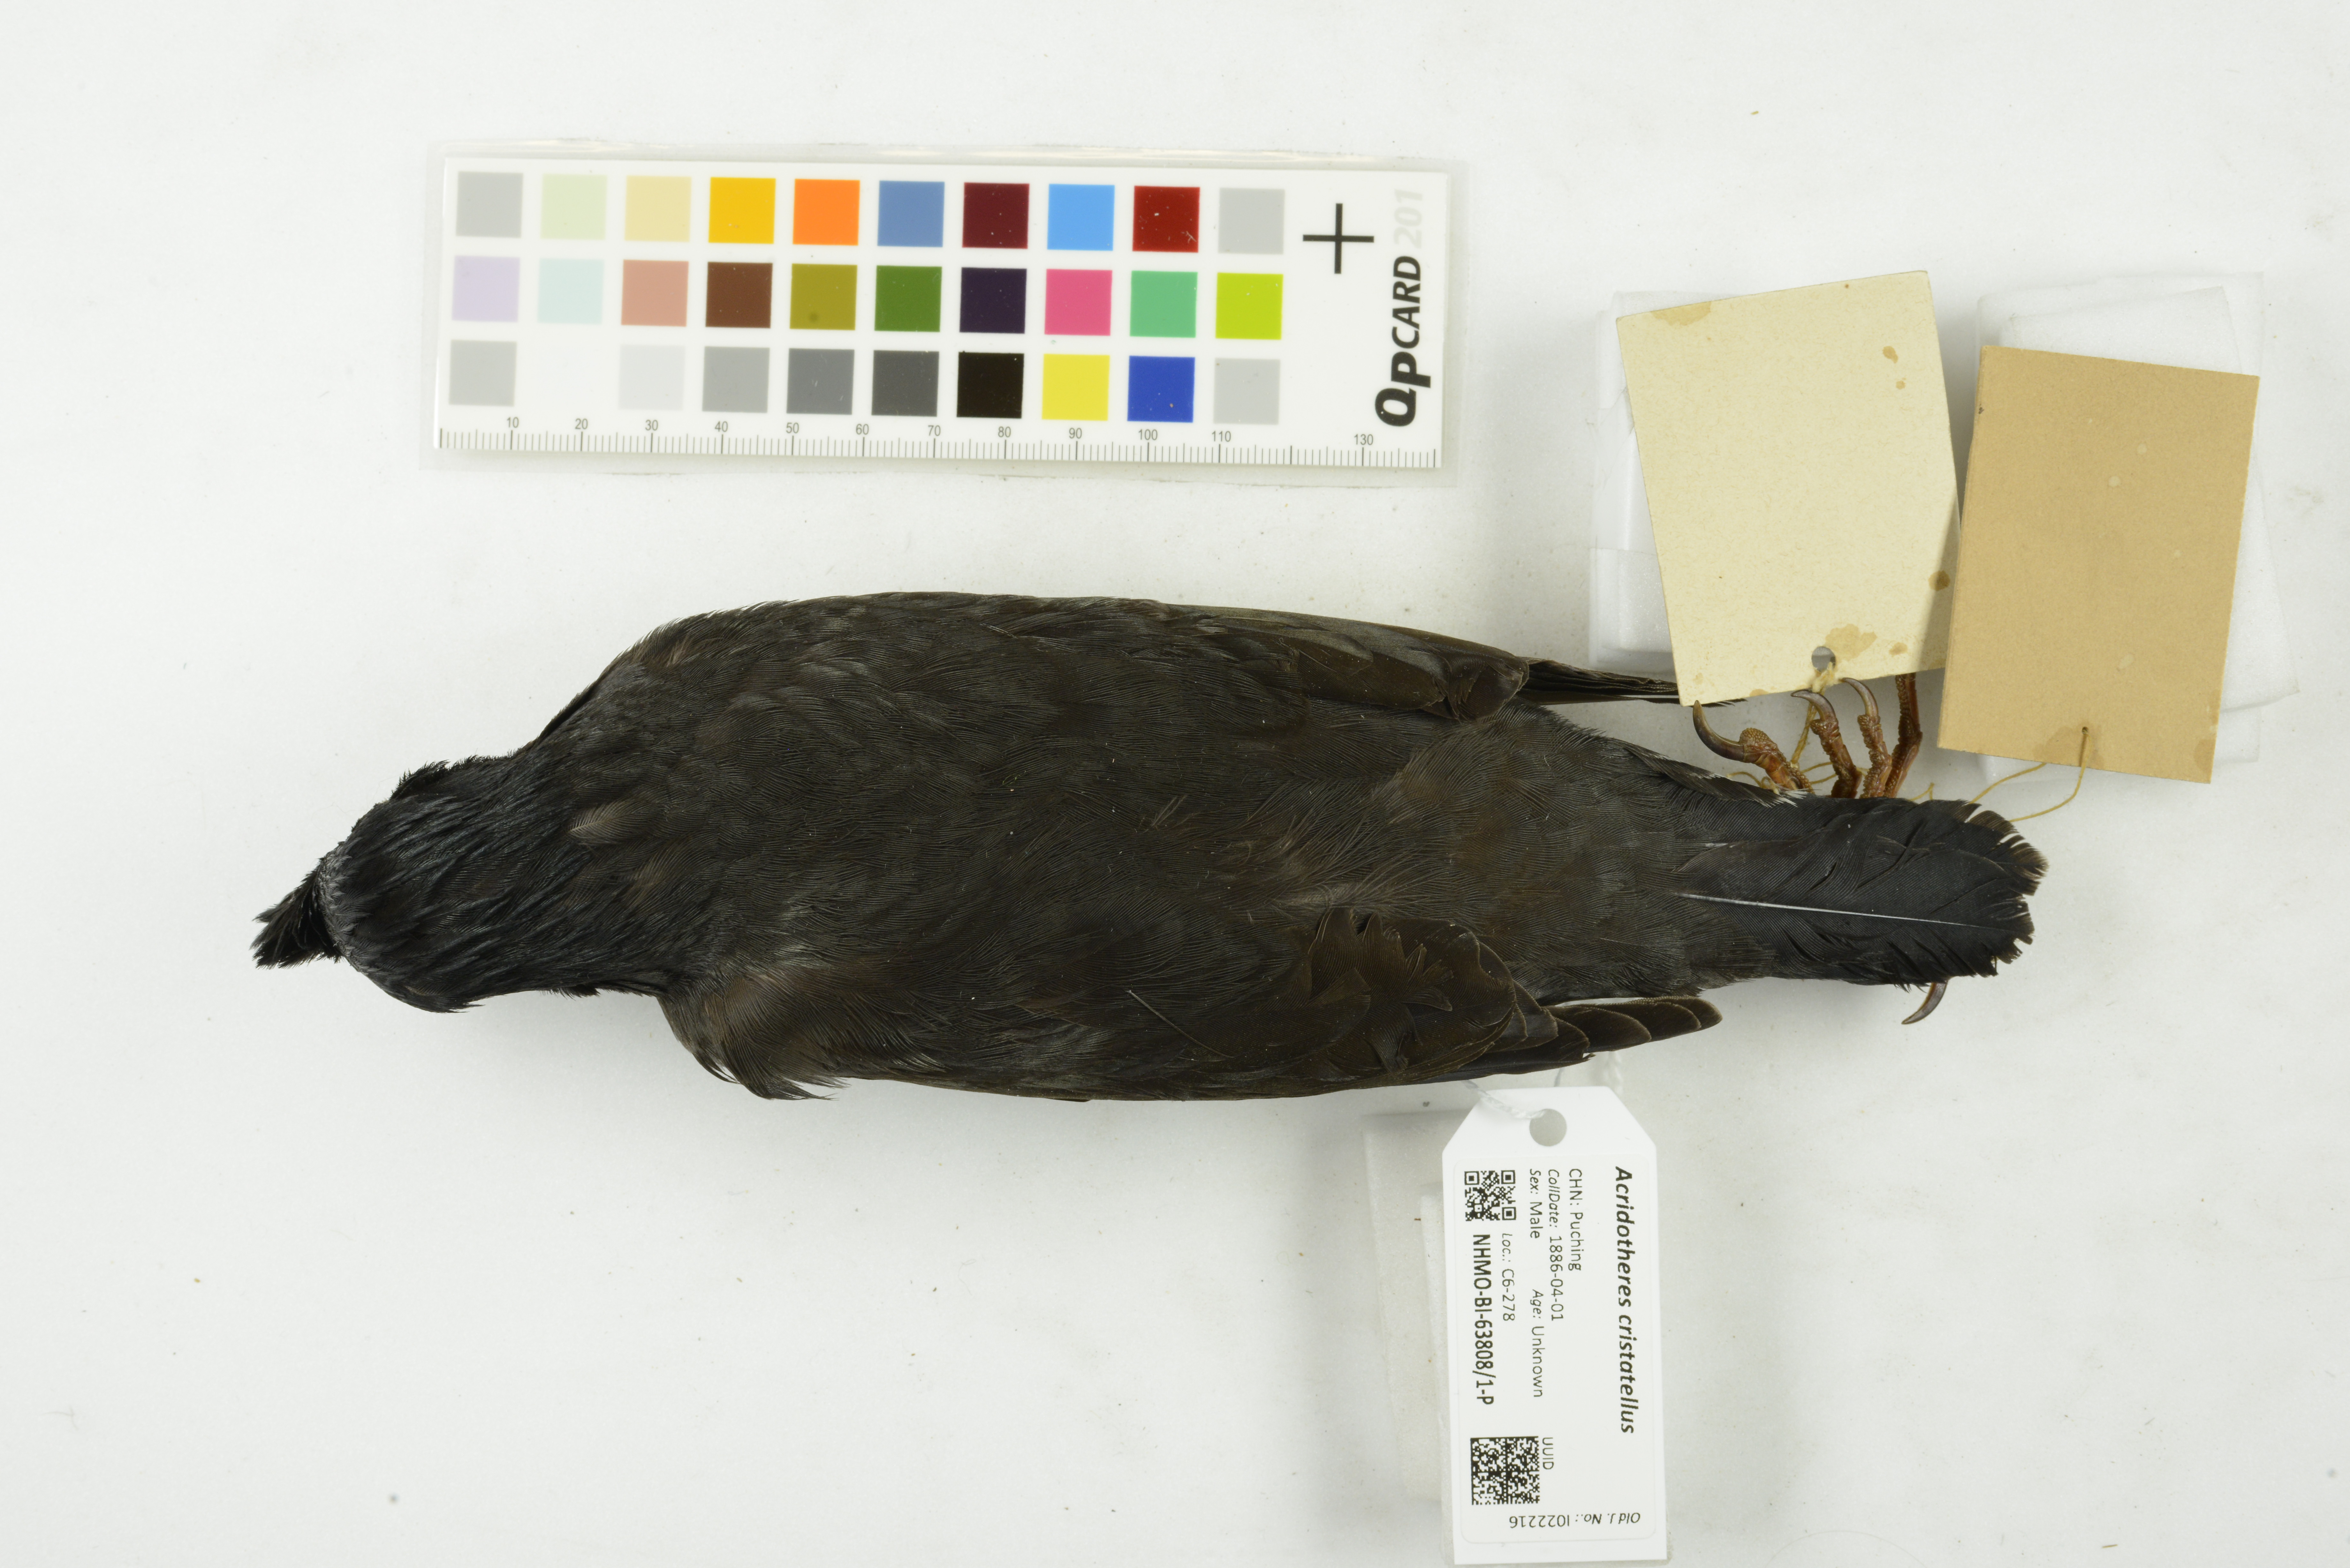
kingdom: Animalia
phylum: Chordata
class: Aves
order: Passeriformes
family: Sturnidae
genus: Acridotheres
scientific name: Acridotheres cristatellus
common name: Crested myna
